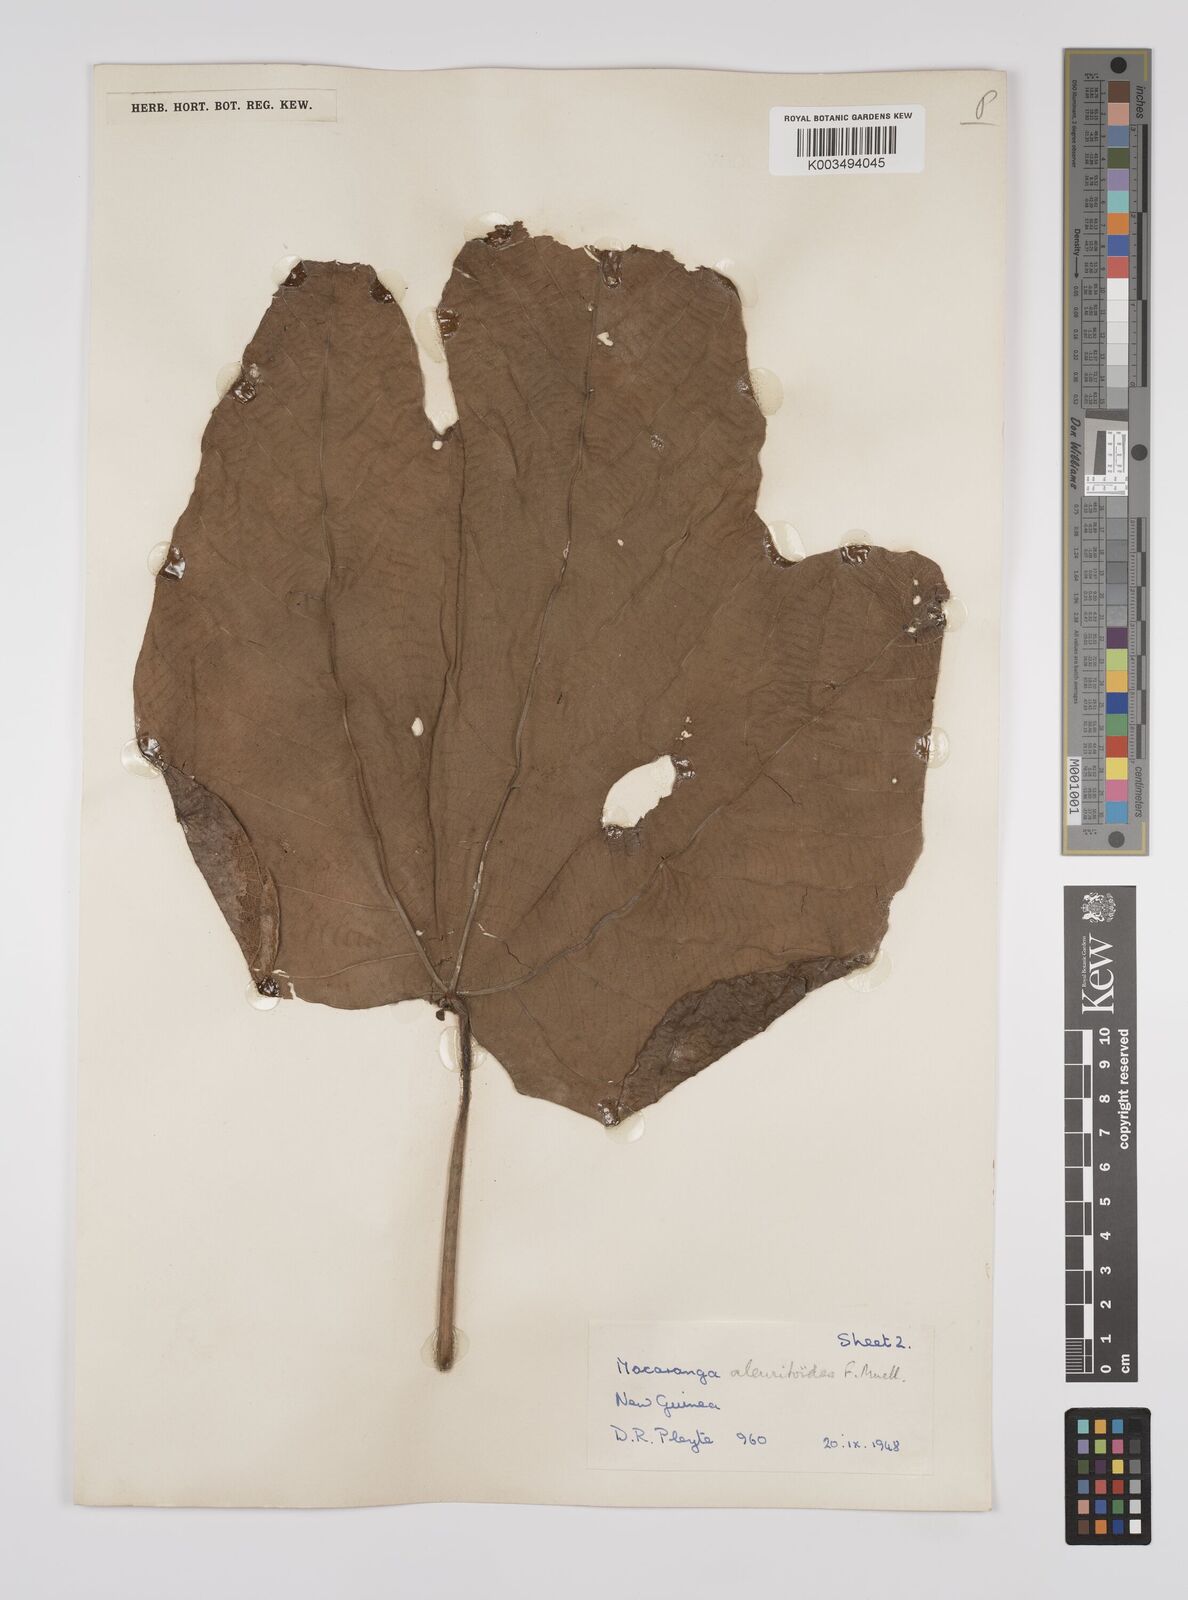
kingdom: Plantae
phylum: Tracheophyta
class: Magnoliopsida
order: Malpighiales
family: Euphorbiaceae
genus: Macaranga
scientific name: Macaranga aleuritoides
